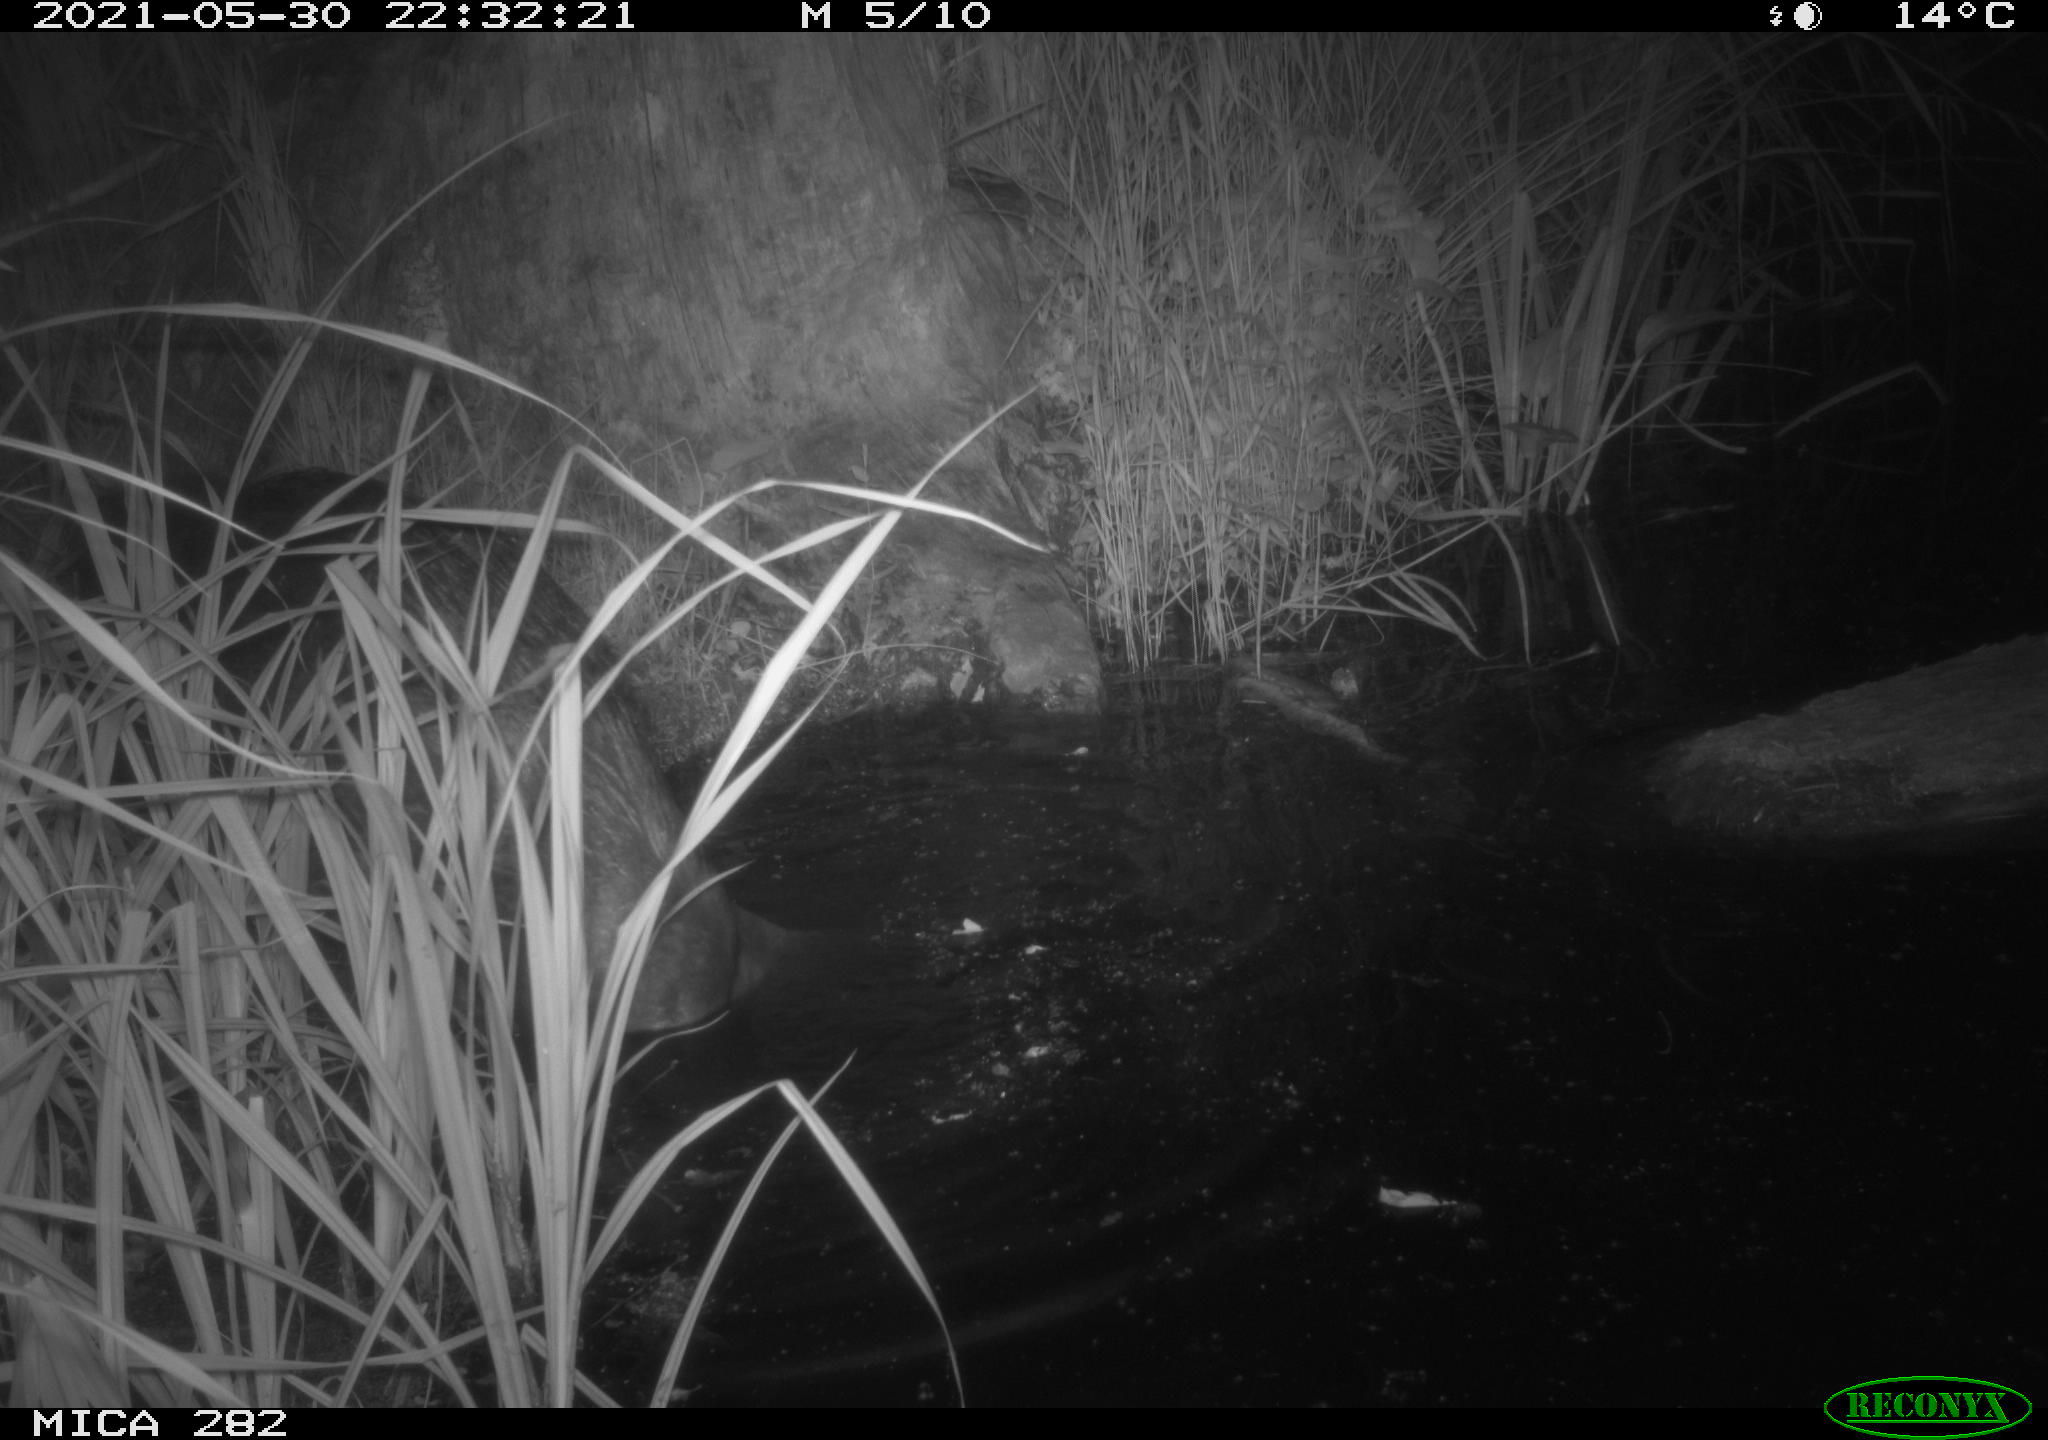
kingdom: Animalia
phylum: Chordata
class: Mammalia
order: Rodentia
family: Castoridae
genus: Castor
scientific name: Castor fiber
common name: Eurasian beaver
